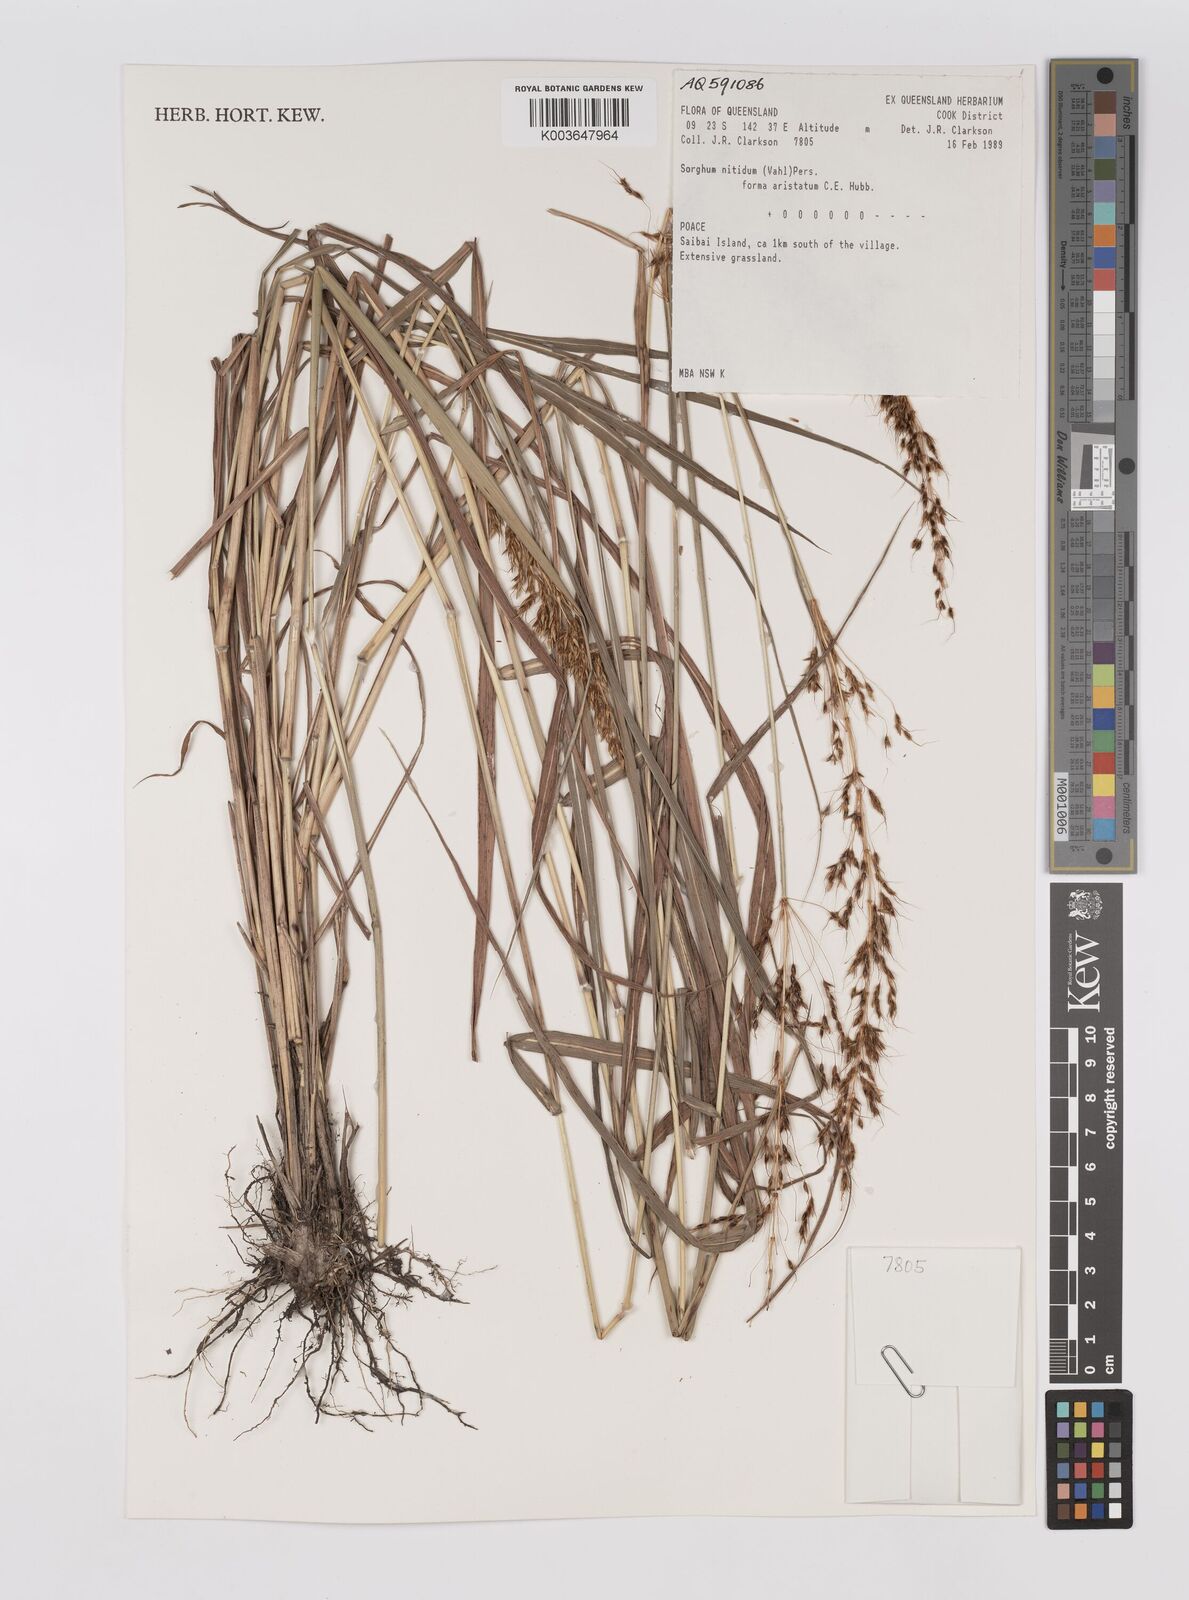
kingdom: Plantae
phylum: Tracheophyta
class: Liliopsida
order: Poales
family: Poaceae
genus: Sorghum
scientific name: Sorghum nitidum
